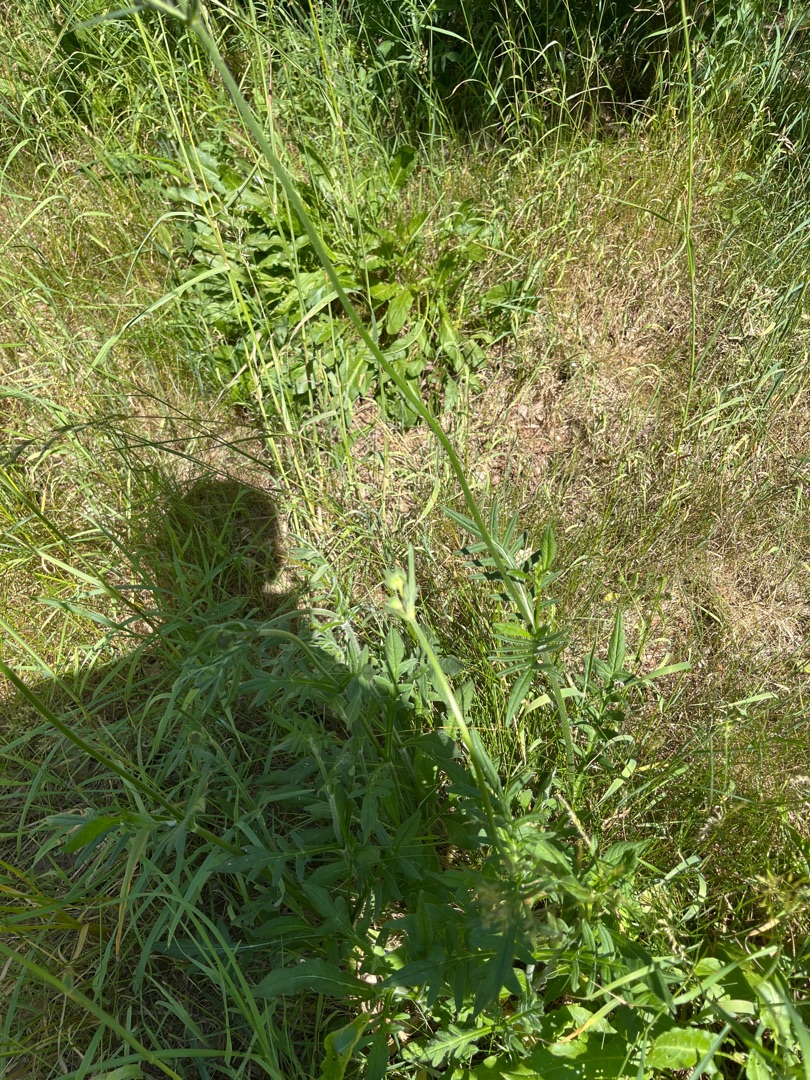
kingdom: Plantae
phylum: Tracheophyta
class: Magnoliopsida
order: Dipsacales
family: Caprifoliaceae
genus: Knautia
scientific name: Knautia arvensis
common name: Blåhat
